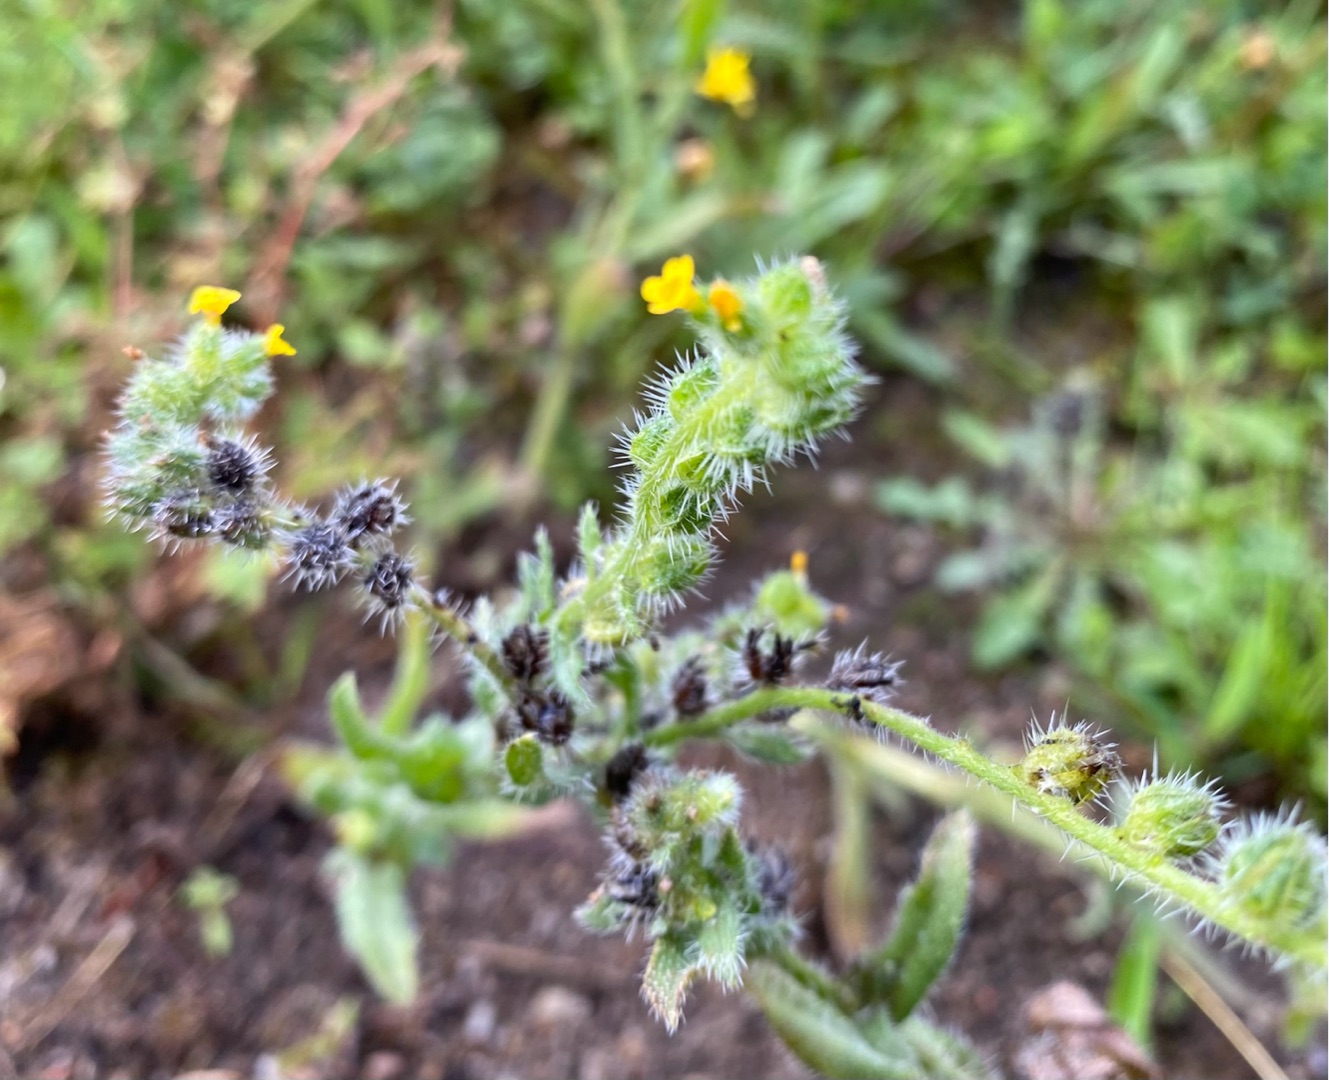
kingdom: Plantae
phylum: Tracheophyta
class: Magnoliopsida
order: Boraginales
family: Boraginaceae
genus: Amsinckia
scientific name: Amsinckia menziesii
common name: Småblomstret gulurt
